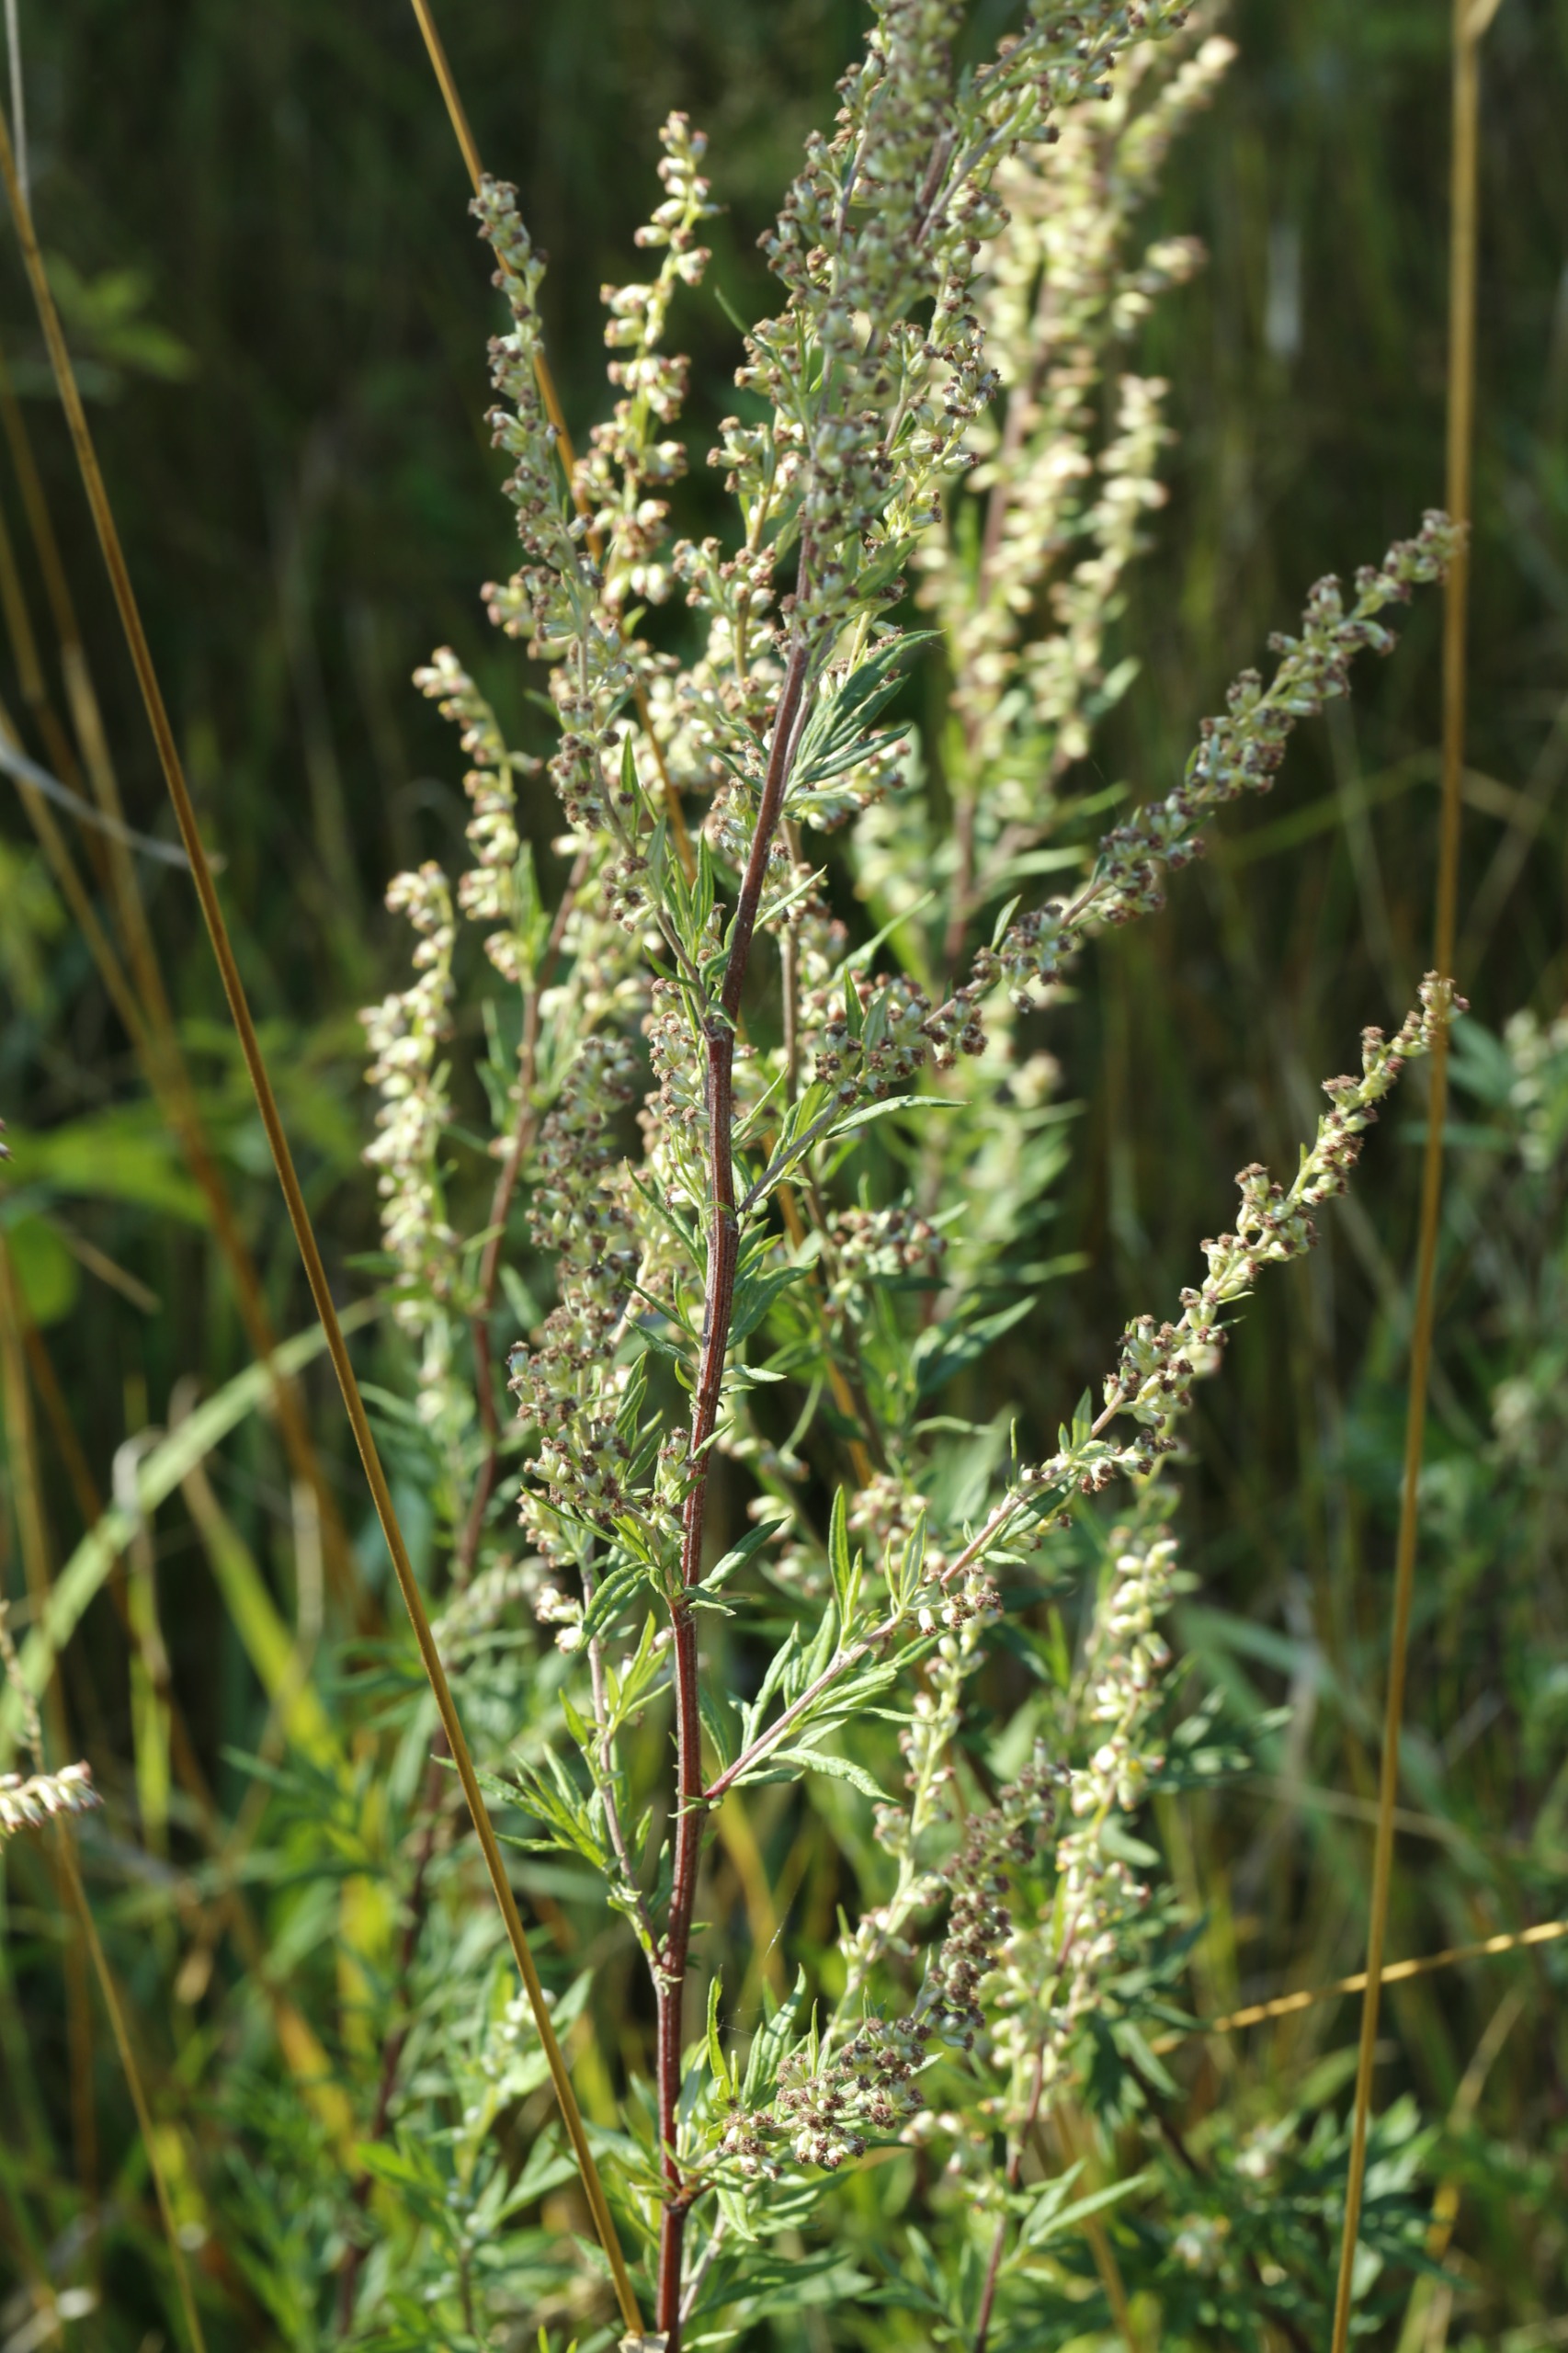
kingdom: Plantae
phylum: Tracheophyta
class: Magnoliopsida
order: Asterales
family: Asteraceae
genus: Artemisia
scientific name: Artemisia vulgaris
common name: Grå-bynke
